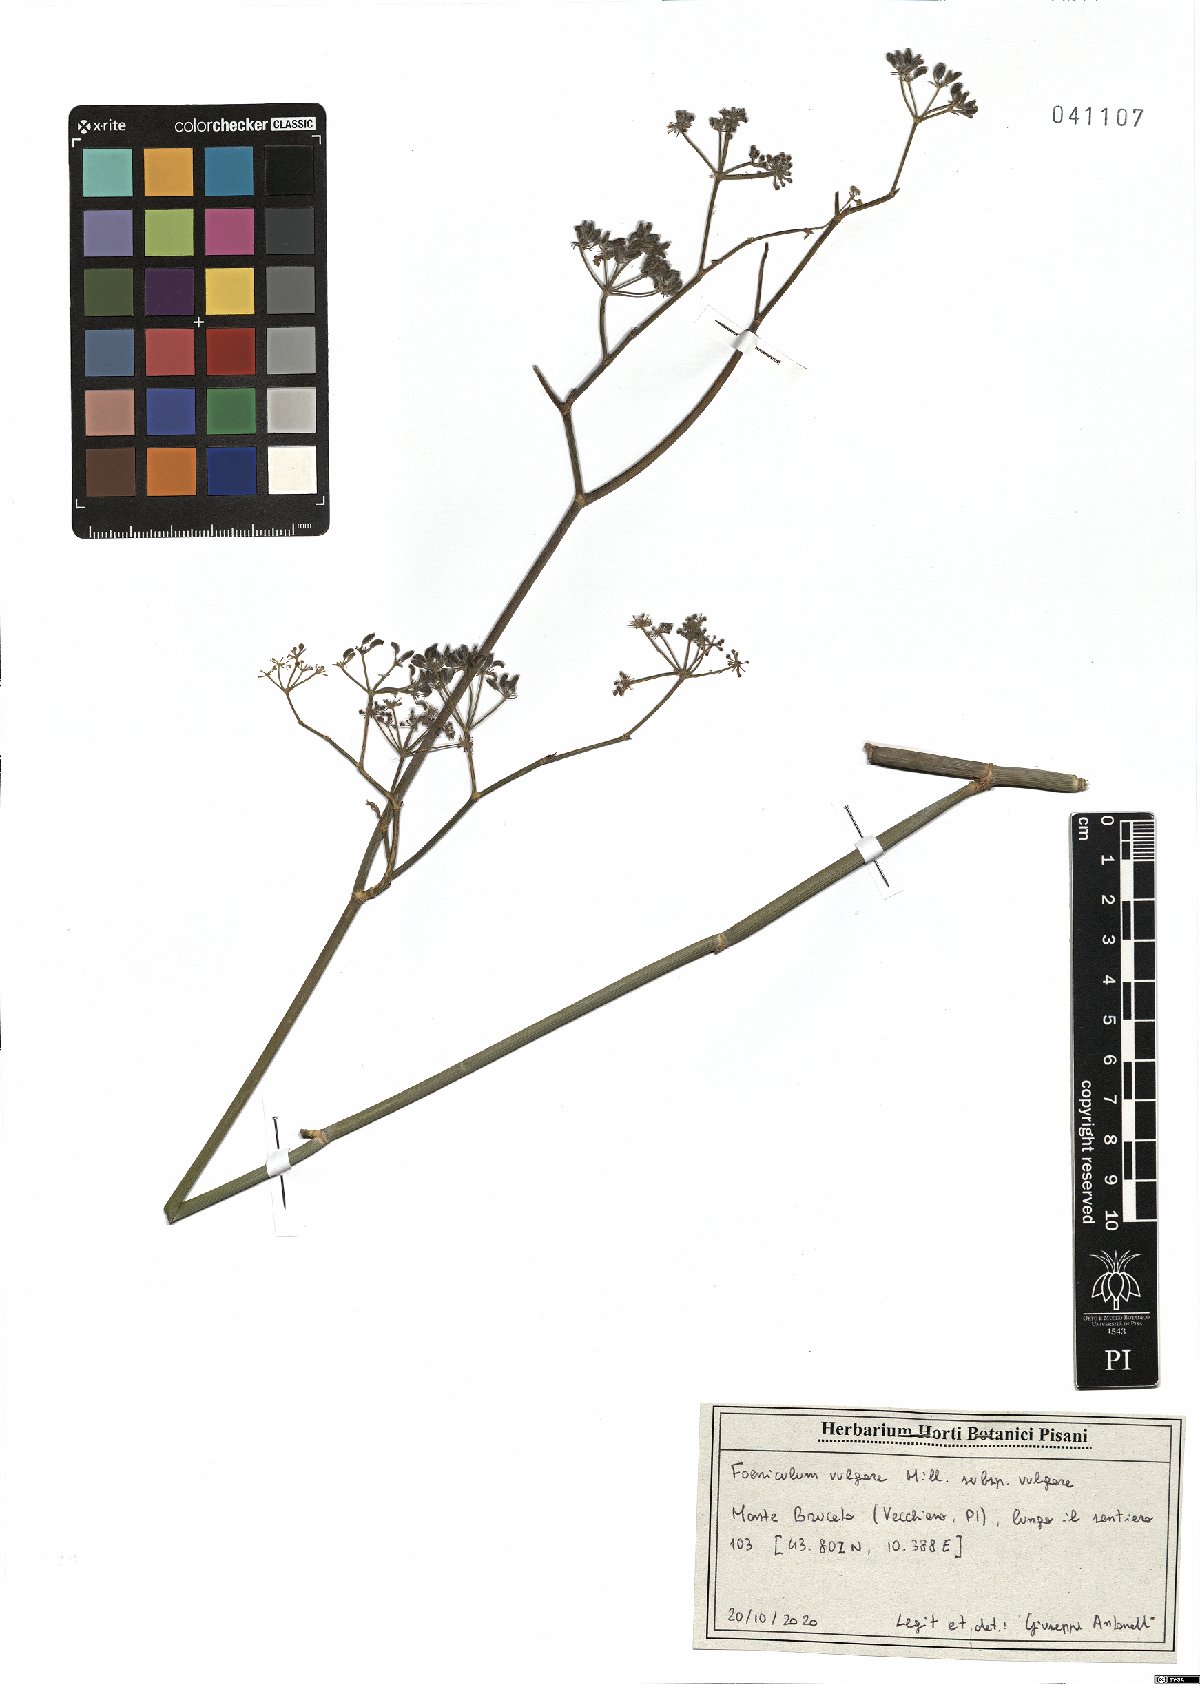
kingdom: Plantae
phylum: Tracheophyta
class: Magnoliopsida
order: Apiales
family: Apiaceae
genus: Foeniculum
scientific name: Foeniculum vulgare
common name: Fennel
